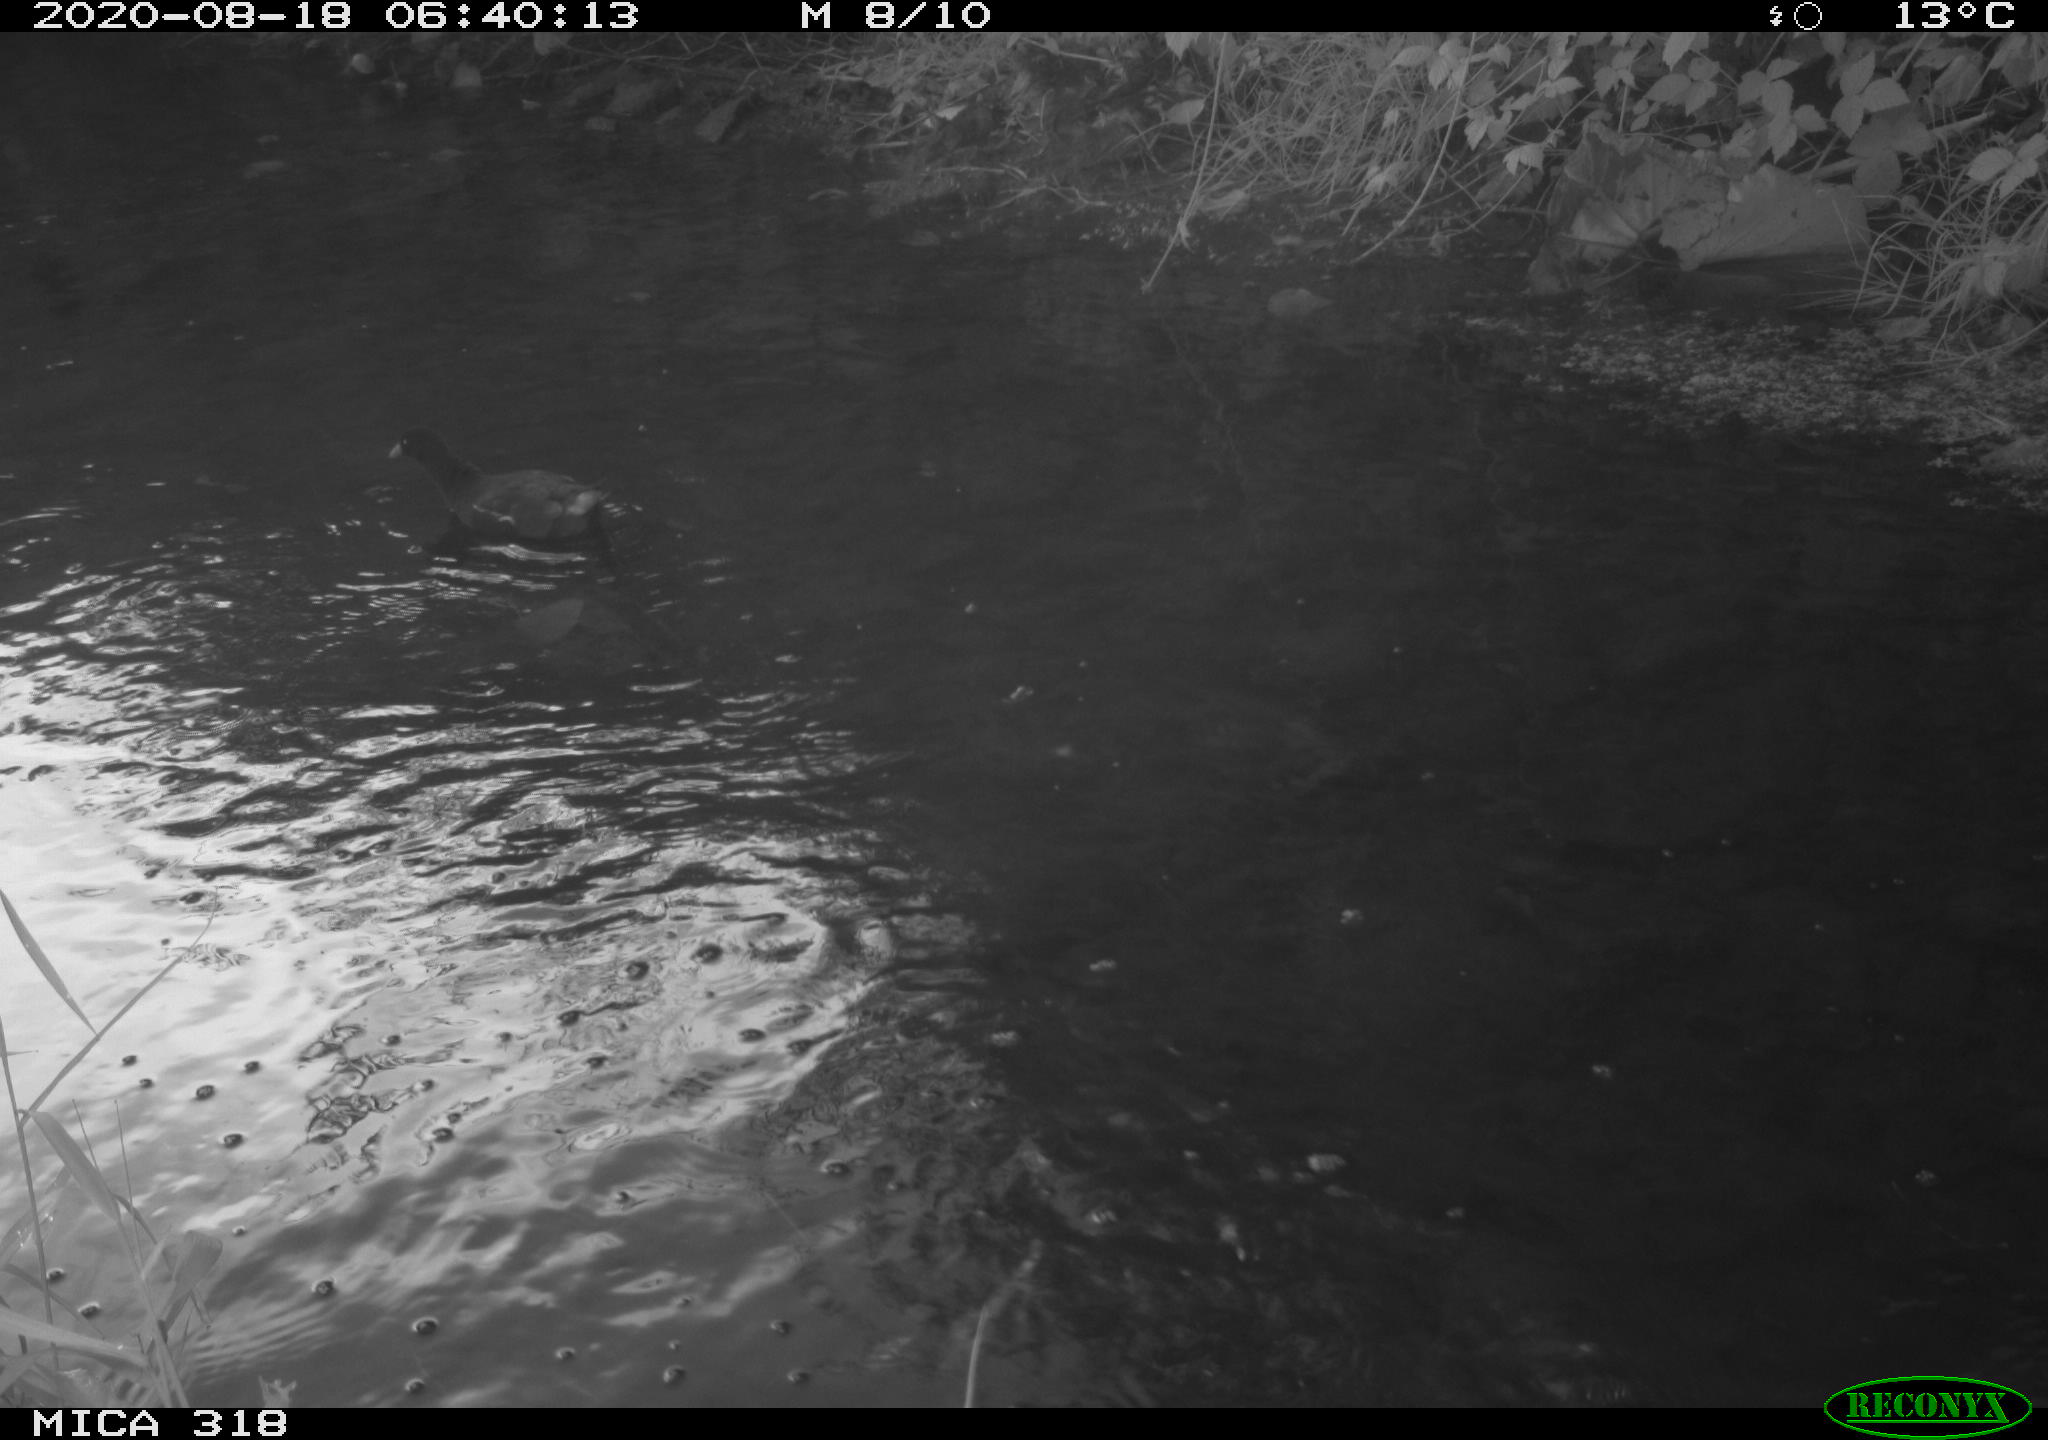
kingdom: Animalia
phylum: Chordata
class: Aves
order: Gruiformes
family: Rallidae
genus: Gallinula
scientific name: Gallinula chloropus
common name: Common moorhen
